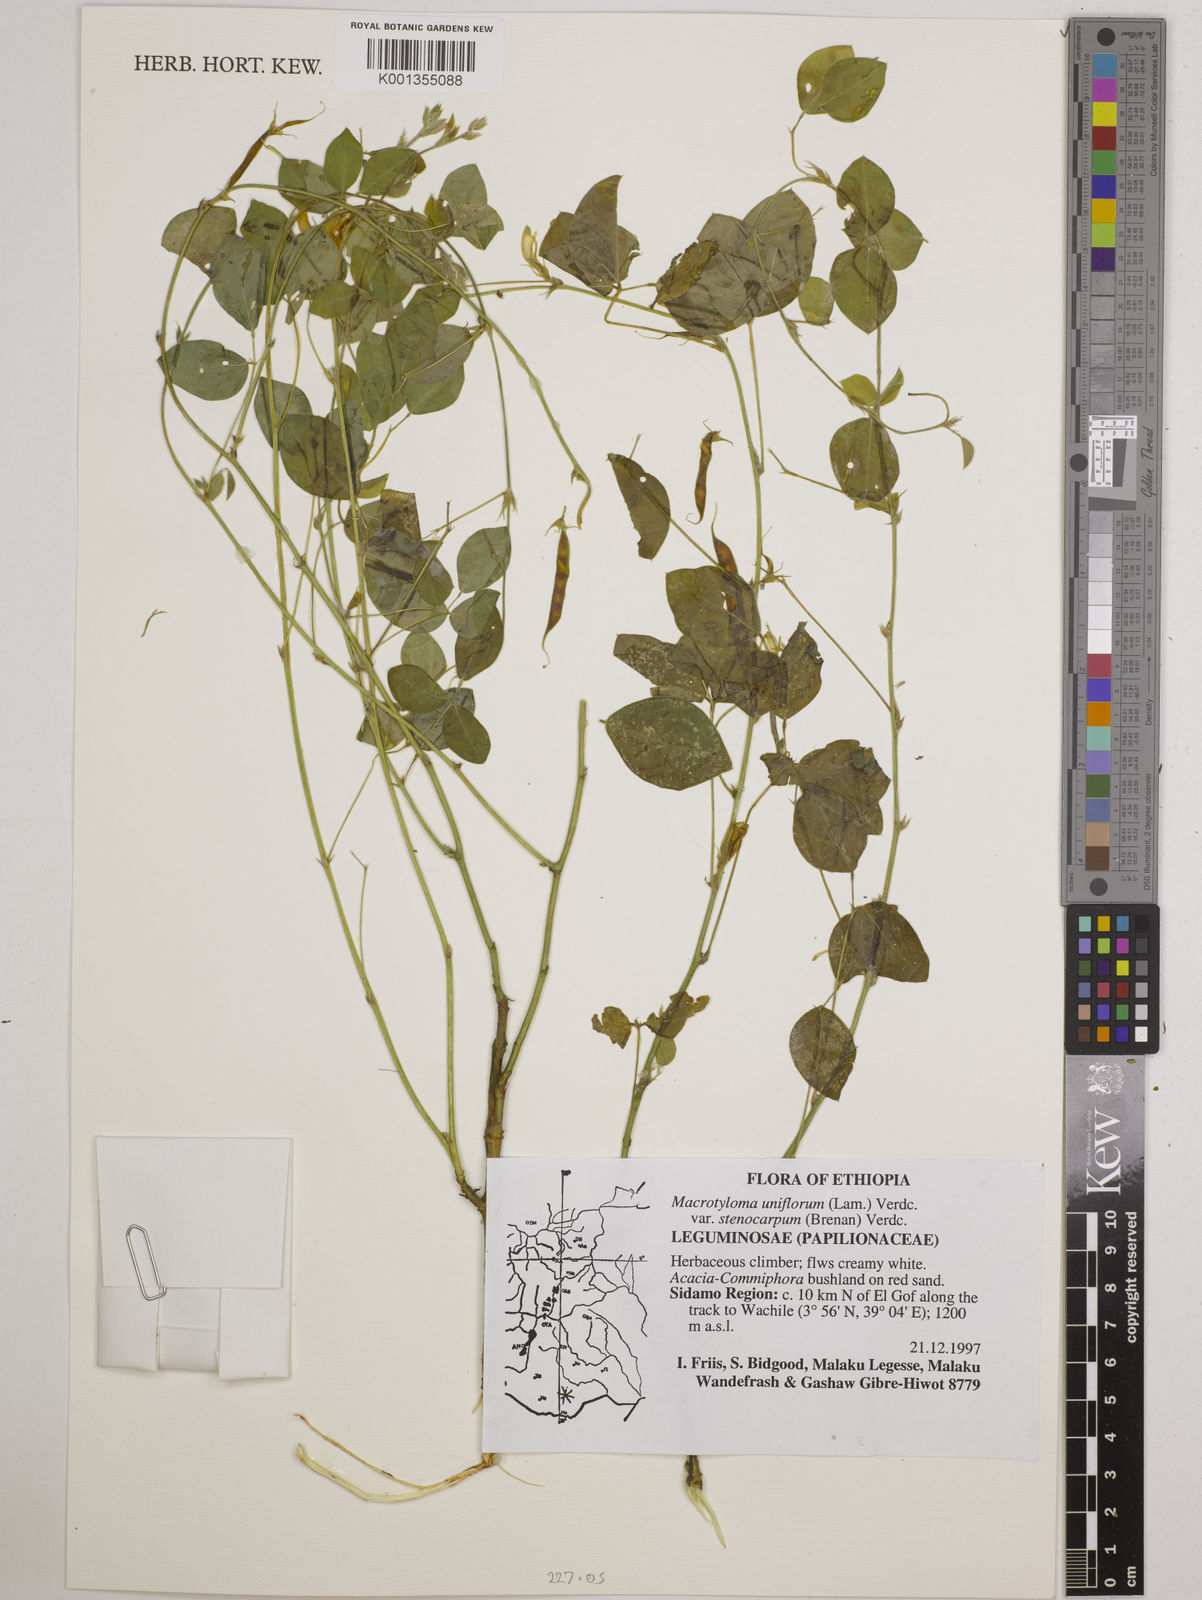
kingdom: Plantae
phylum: Tracheophyta
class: Magnoliopsida
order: Fabales
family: Fabaceae
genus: Macrotyloma
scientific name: Macrotyloma
